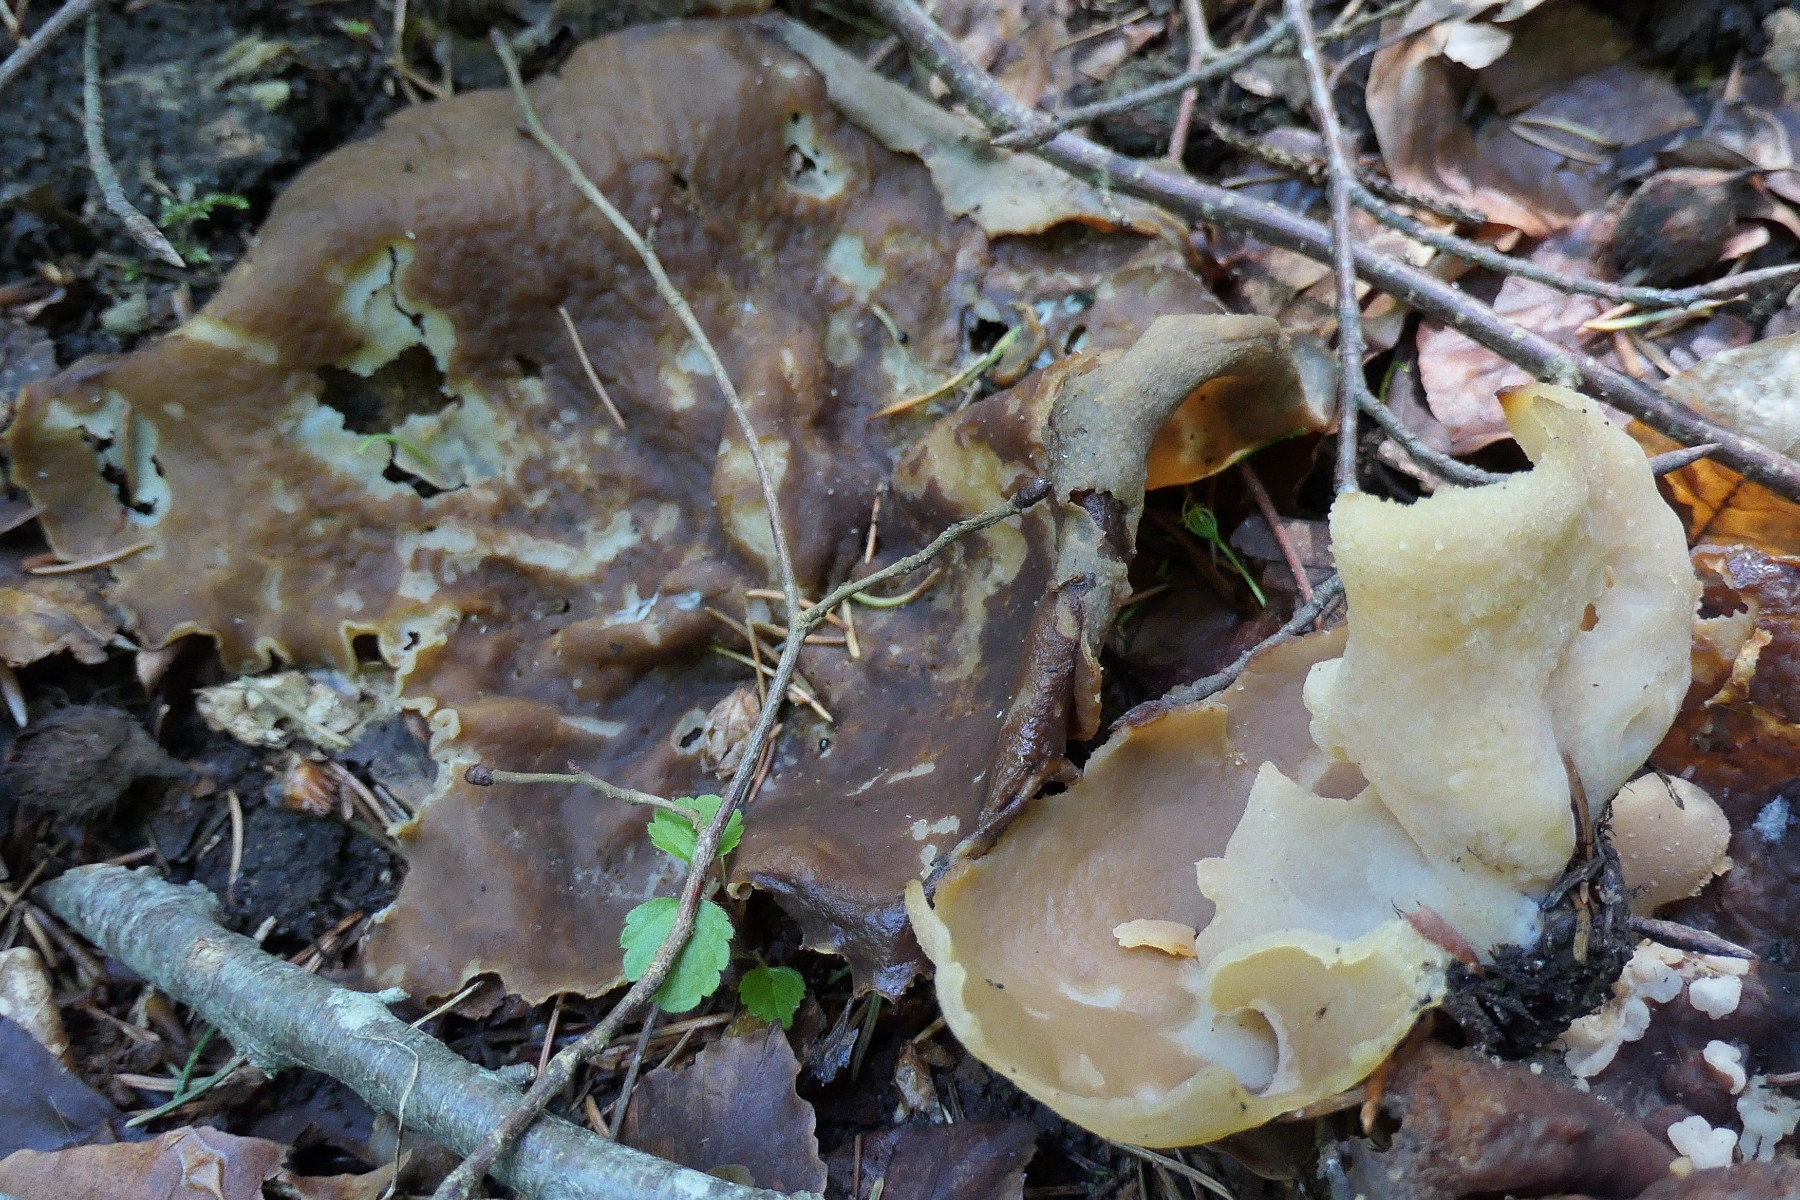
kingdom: Fungi
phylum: Ascomycota
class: Pezizomycetes
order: Pezizales
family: Morchellaceae
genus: Disciotis
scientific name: Disciotis venosa
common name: klor-bægermorkel
